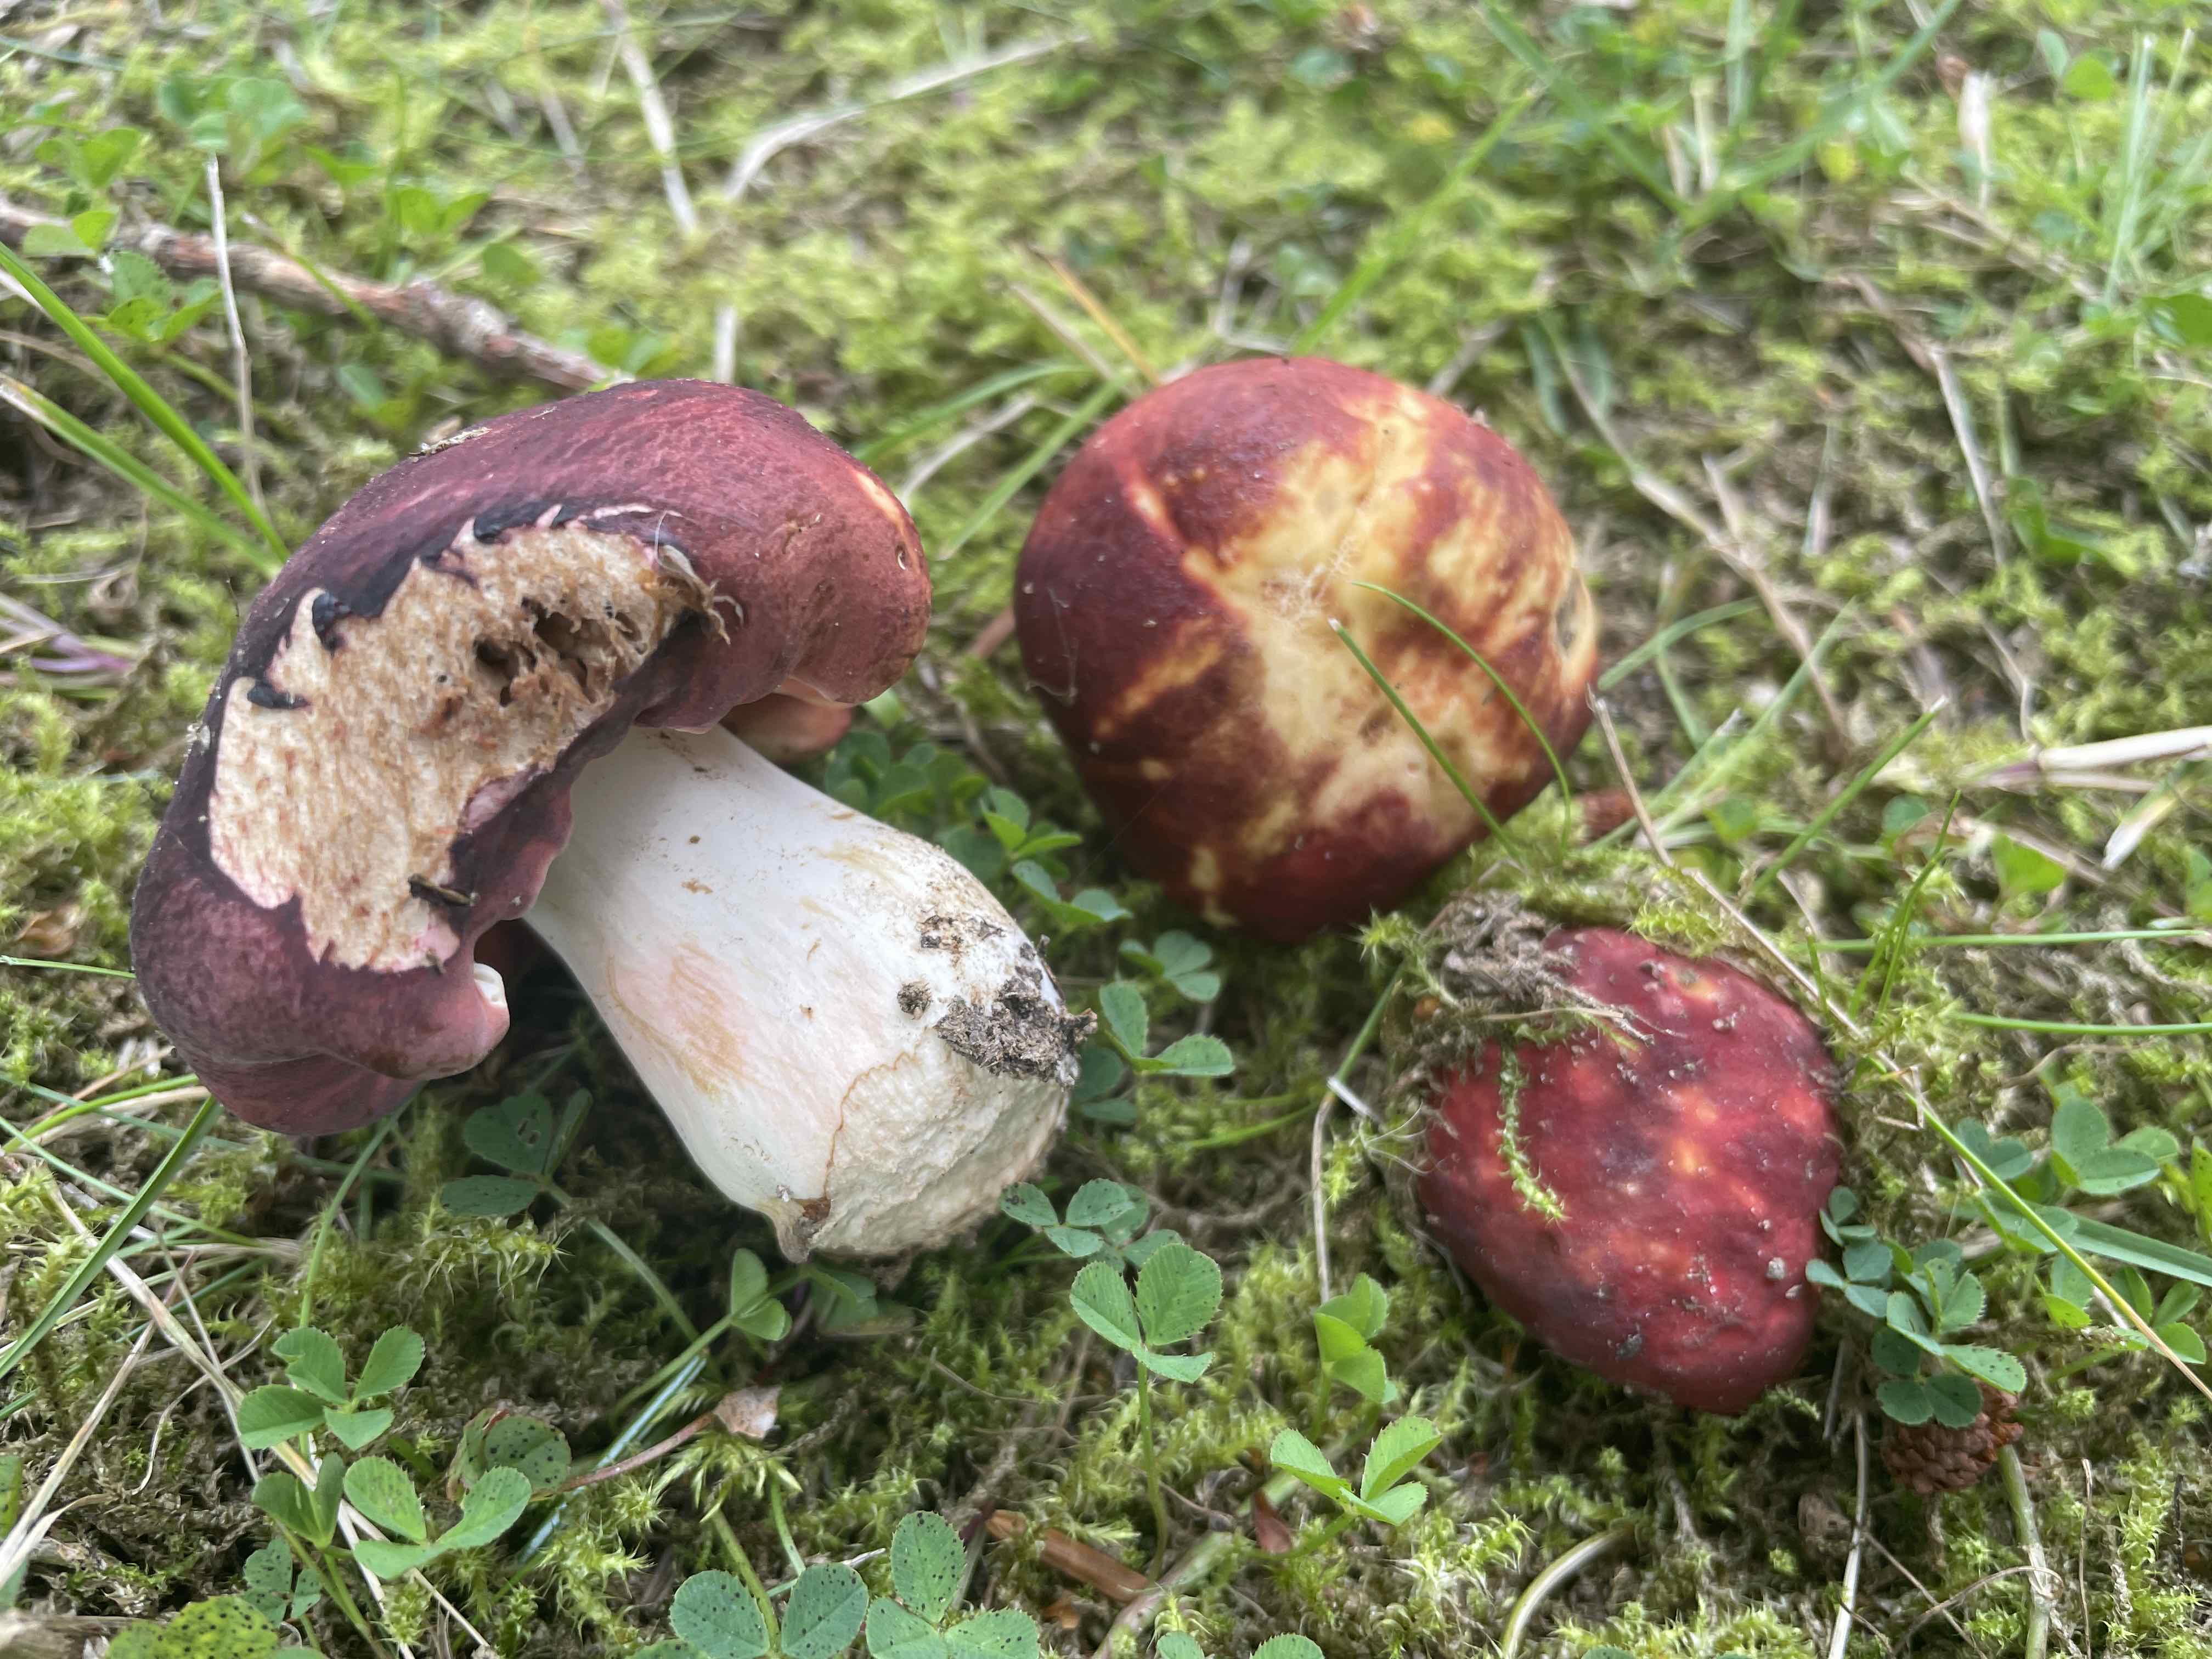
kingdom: Fungi
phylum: Basidiomycota
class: Agaricomycetes
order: Russulales
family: Russulaceae
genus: Russula
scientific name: Russula graveolens
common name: bugtet skørhat
